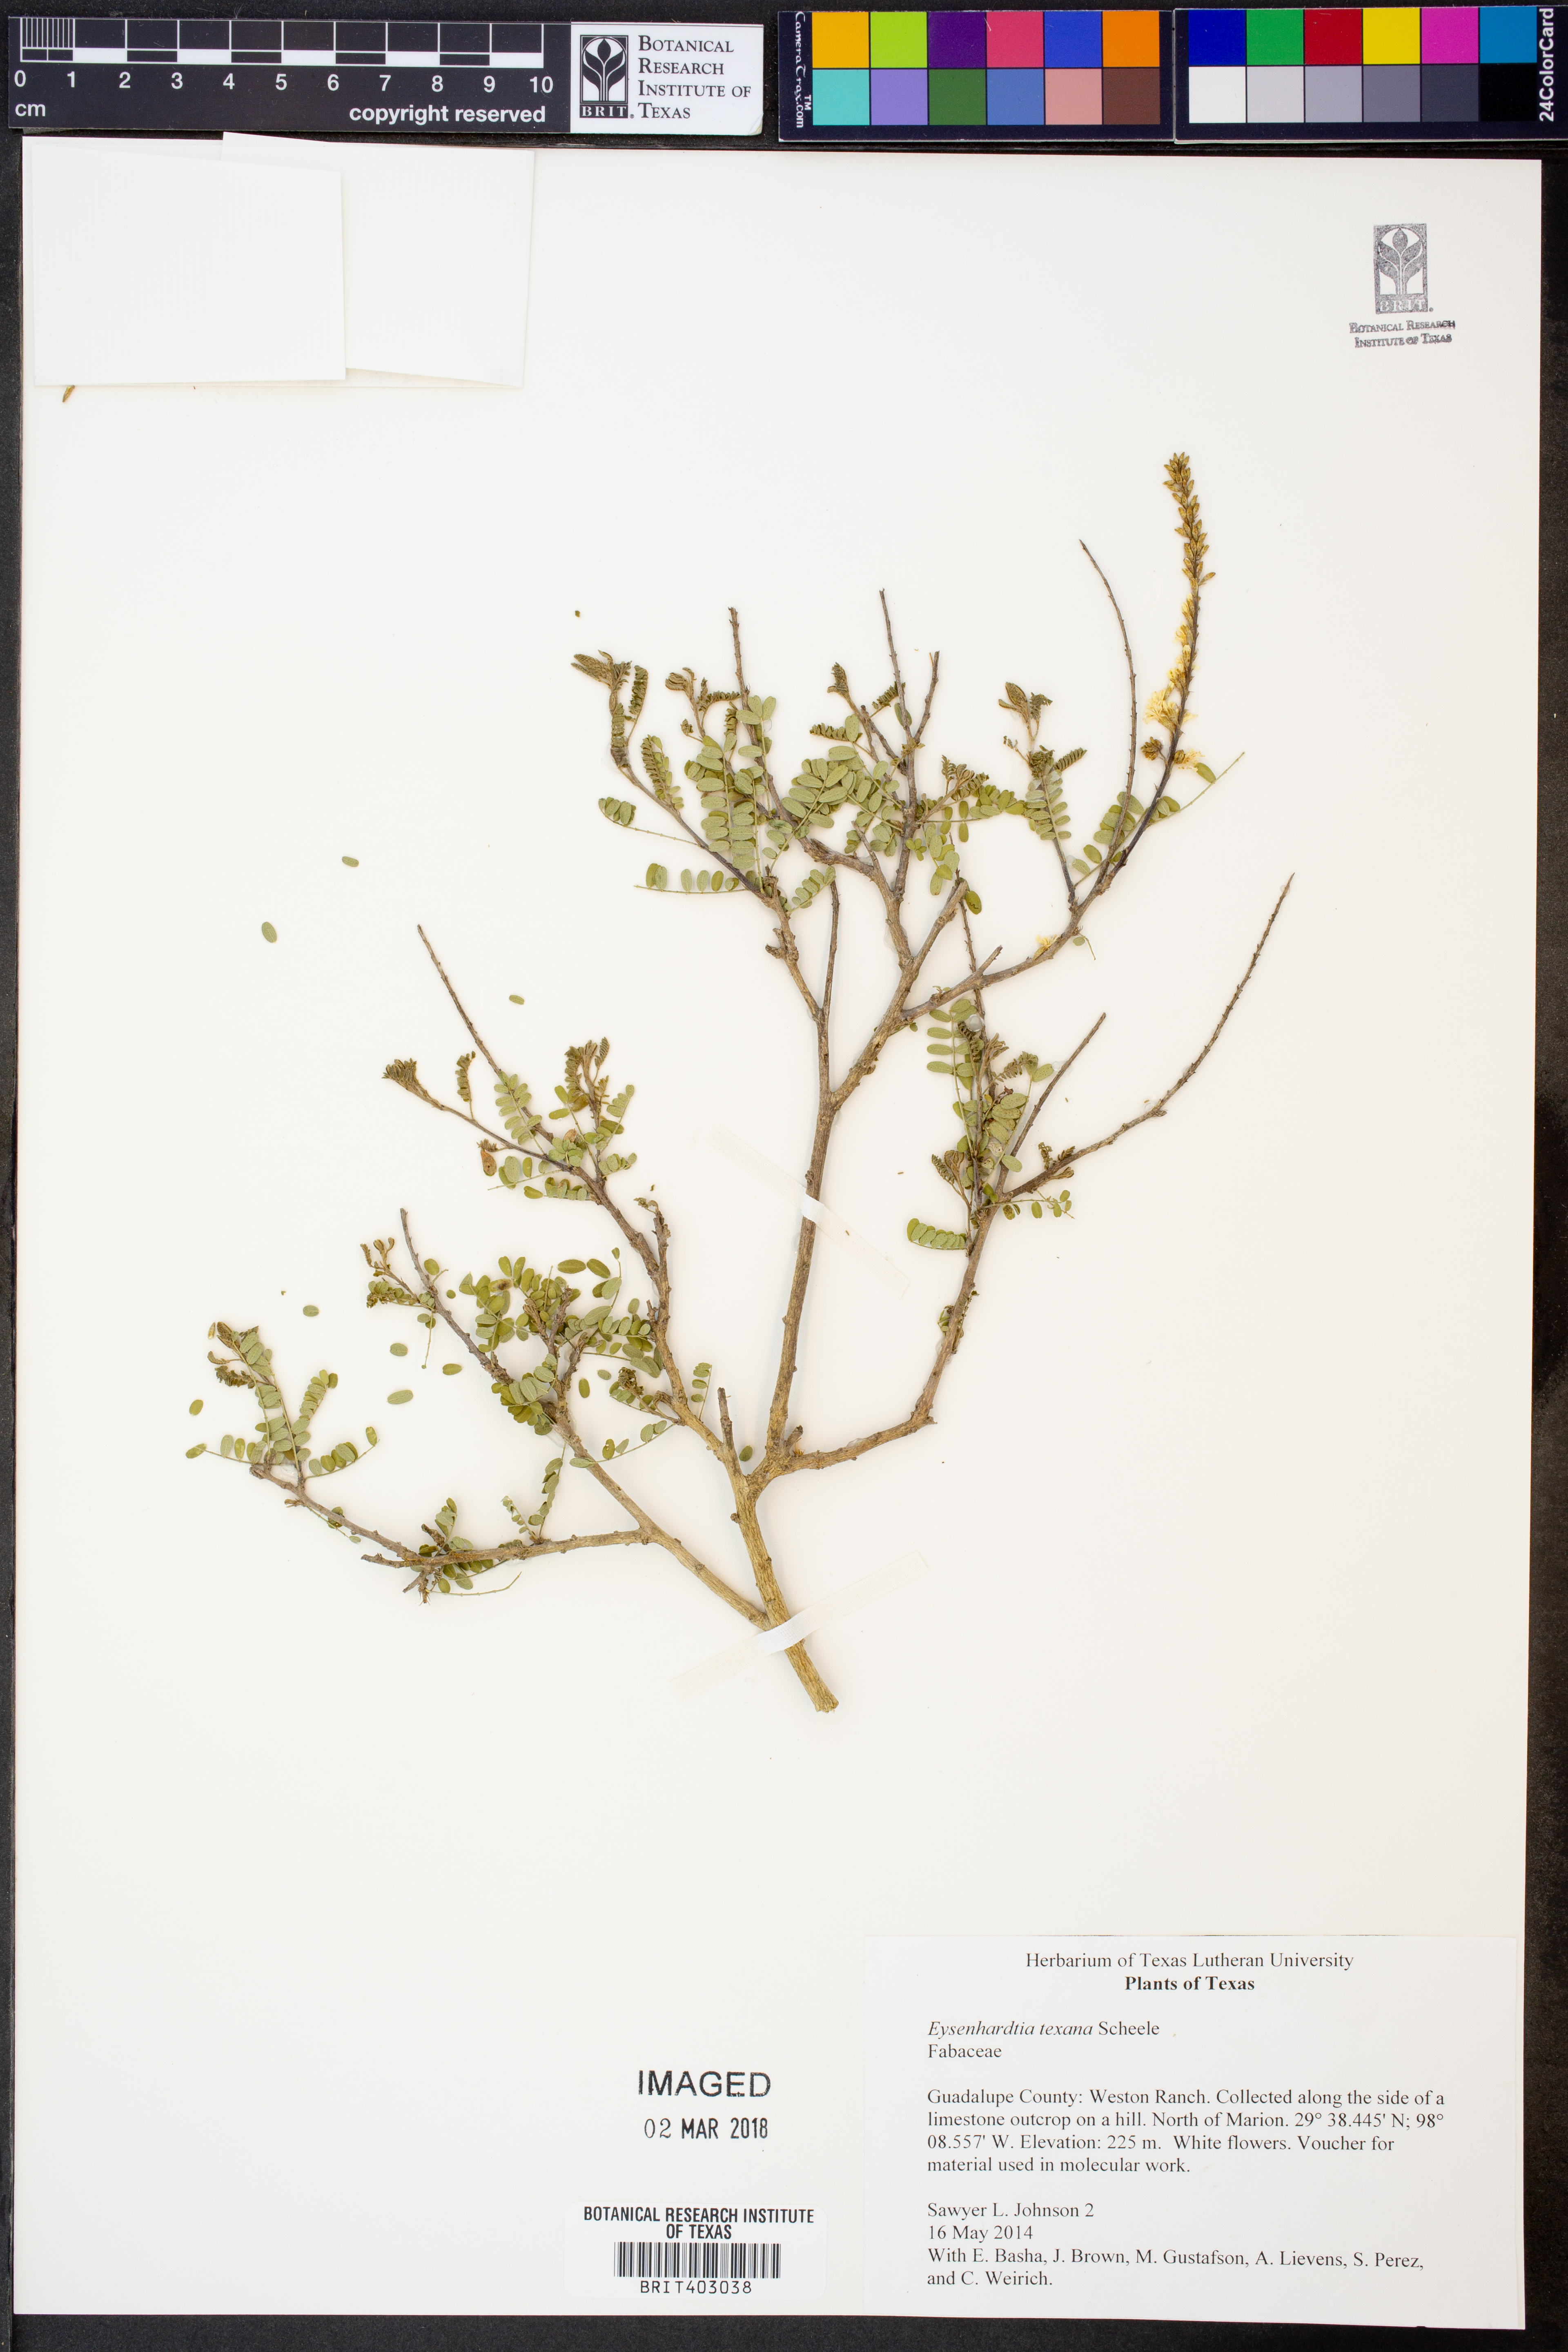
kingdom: Plantae
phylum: Tracheophyta
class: Magnoliopsida
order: Fabales
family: Fabaceae
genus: Eysenhardtia
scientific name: Eysenhardtia texana
